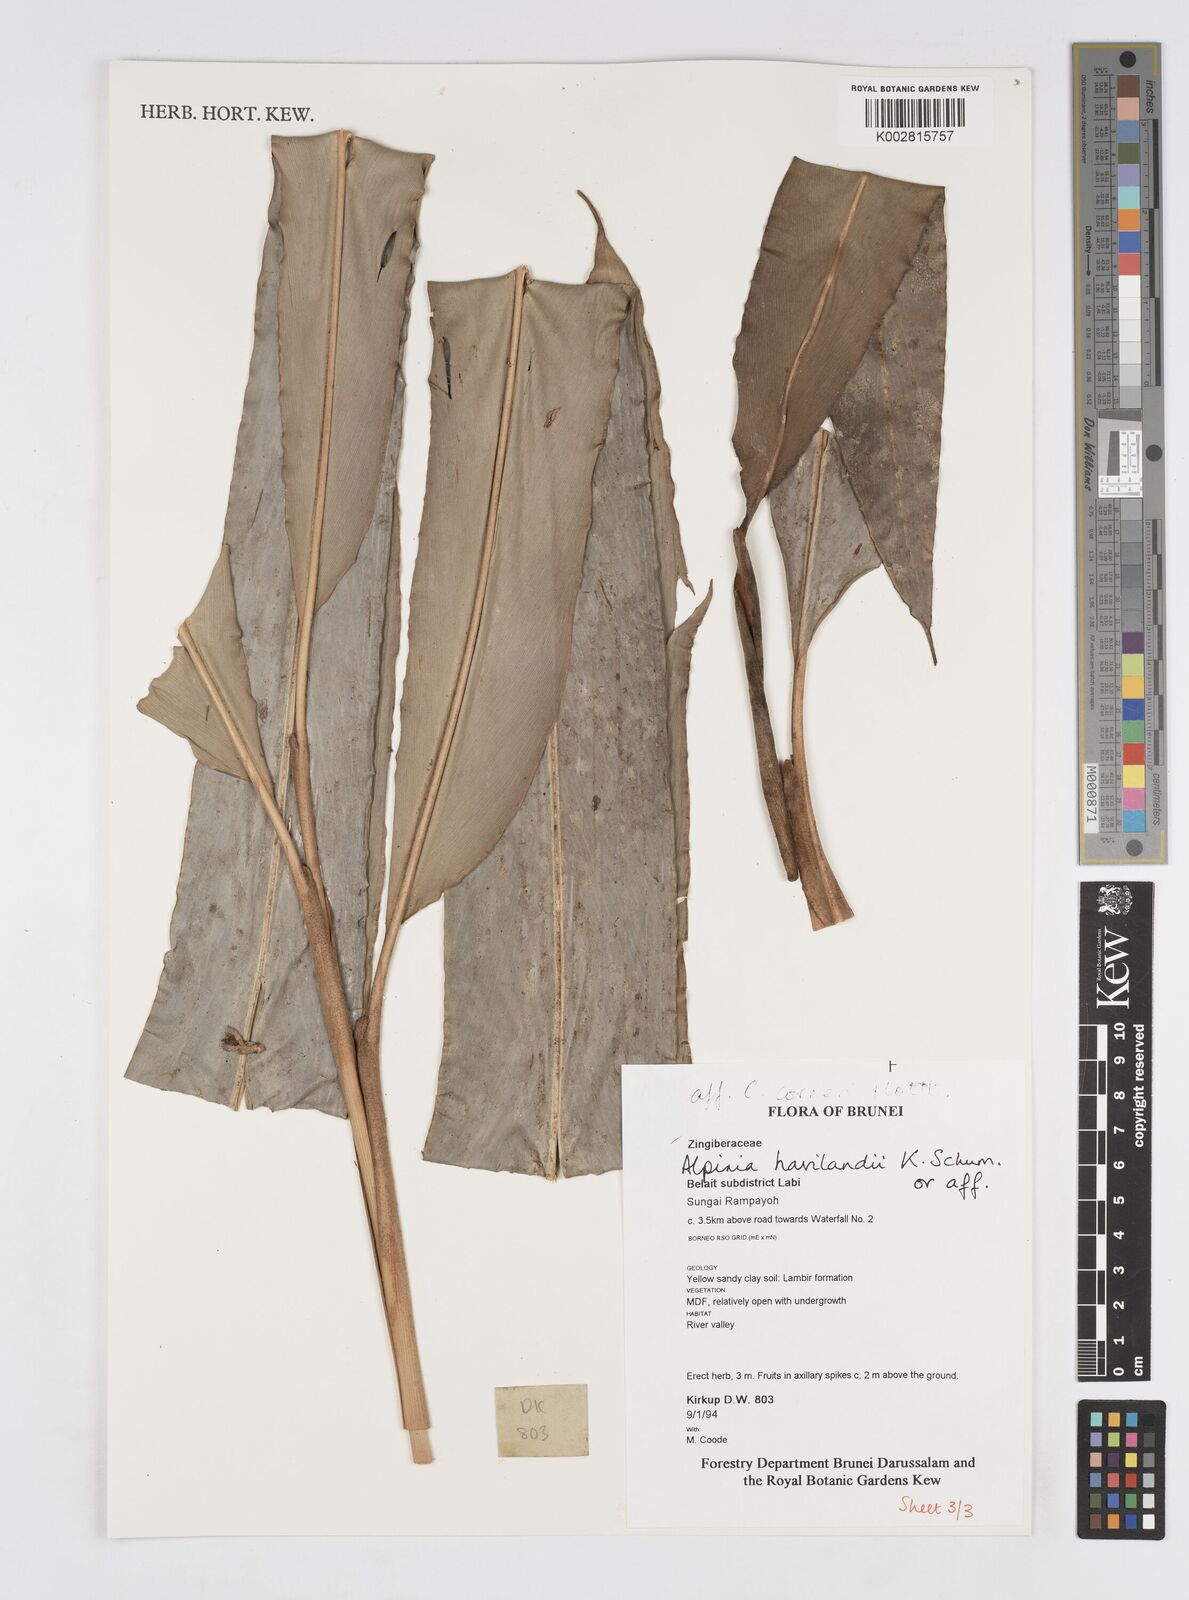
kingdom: Plantae
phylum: Tracheophyta
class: Liliopsida
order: Zingiberales
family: Zingiberaceae
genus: Alpinia
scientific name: Alpinia havilandii
